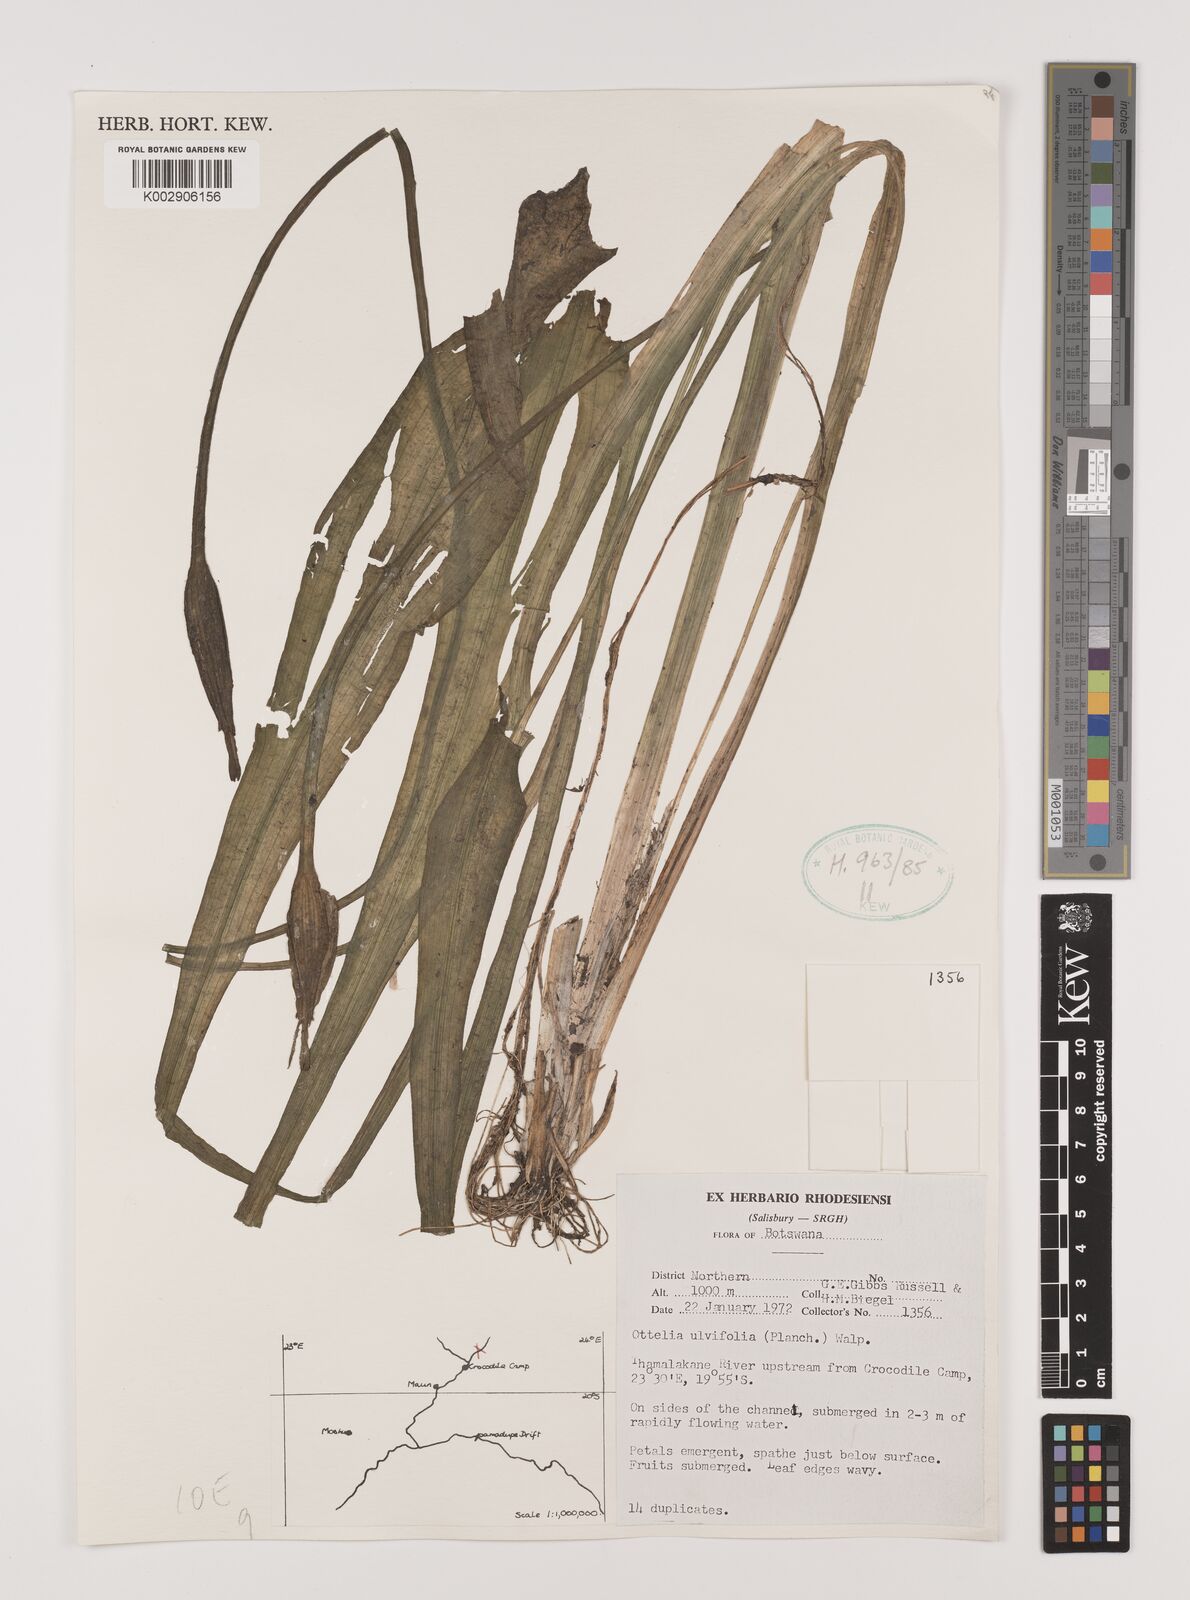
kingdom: Plantae
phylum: Tracheophyta
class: Liliopsida
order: Alismatales
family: Hydrocharitaceae
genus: Ottelia
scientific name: Ottelia ulvifolia
